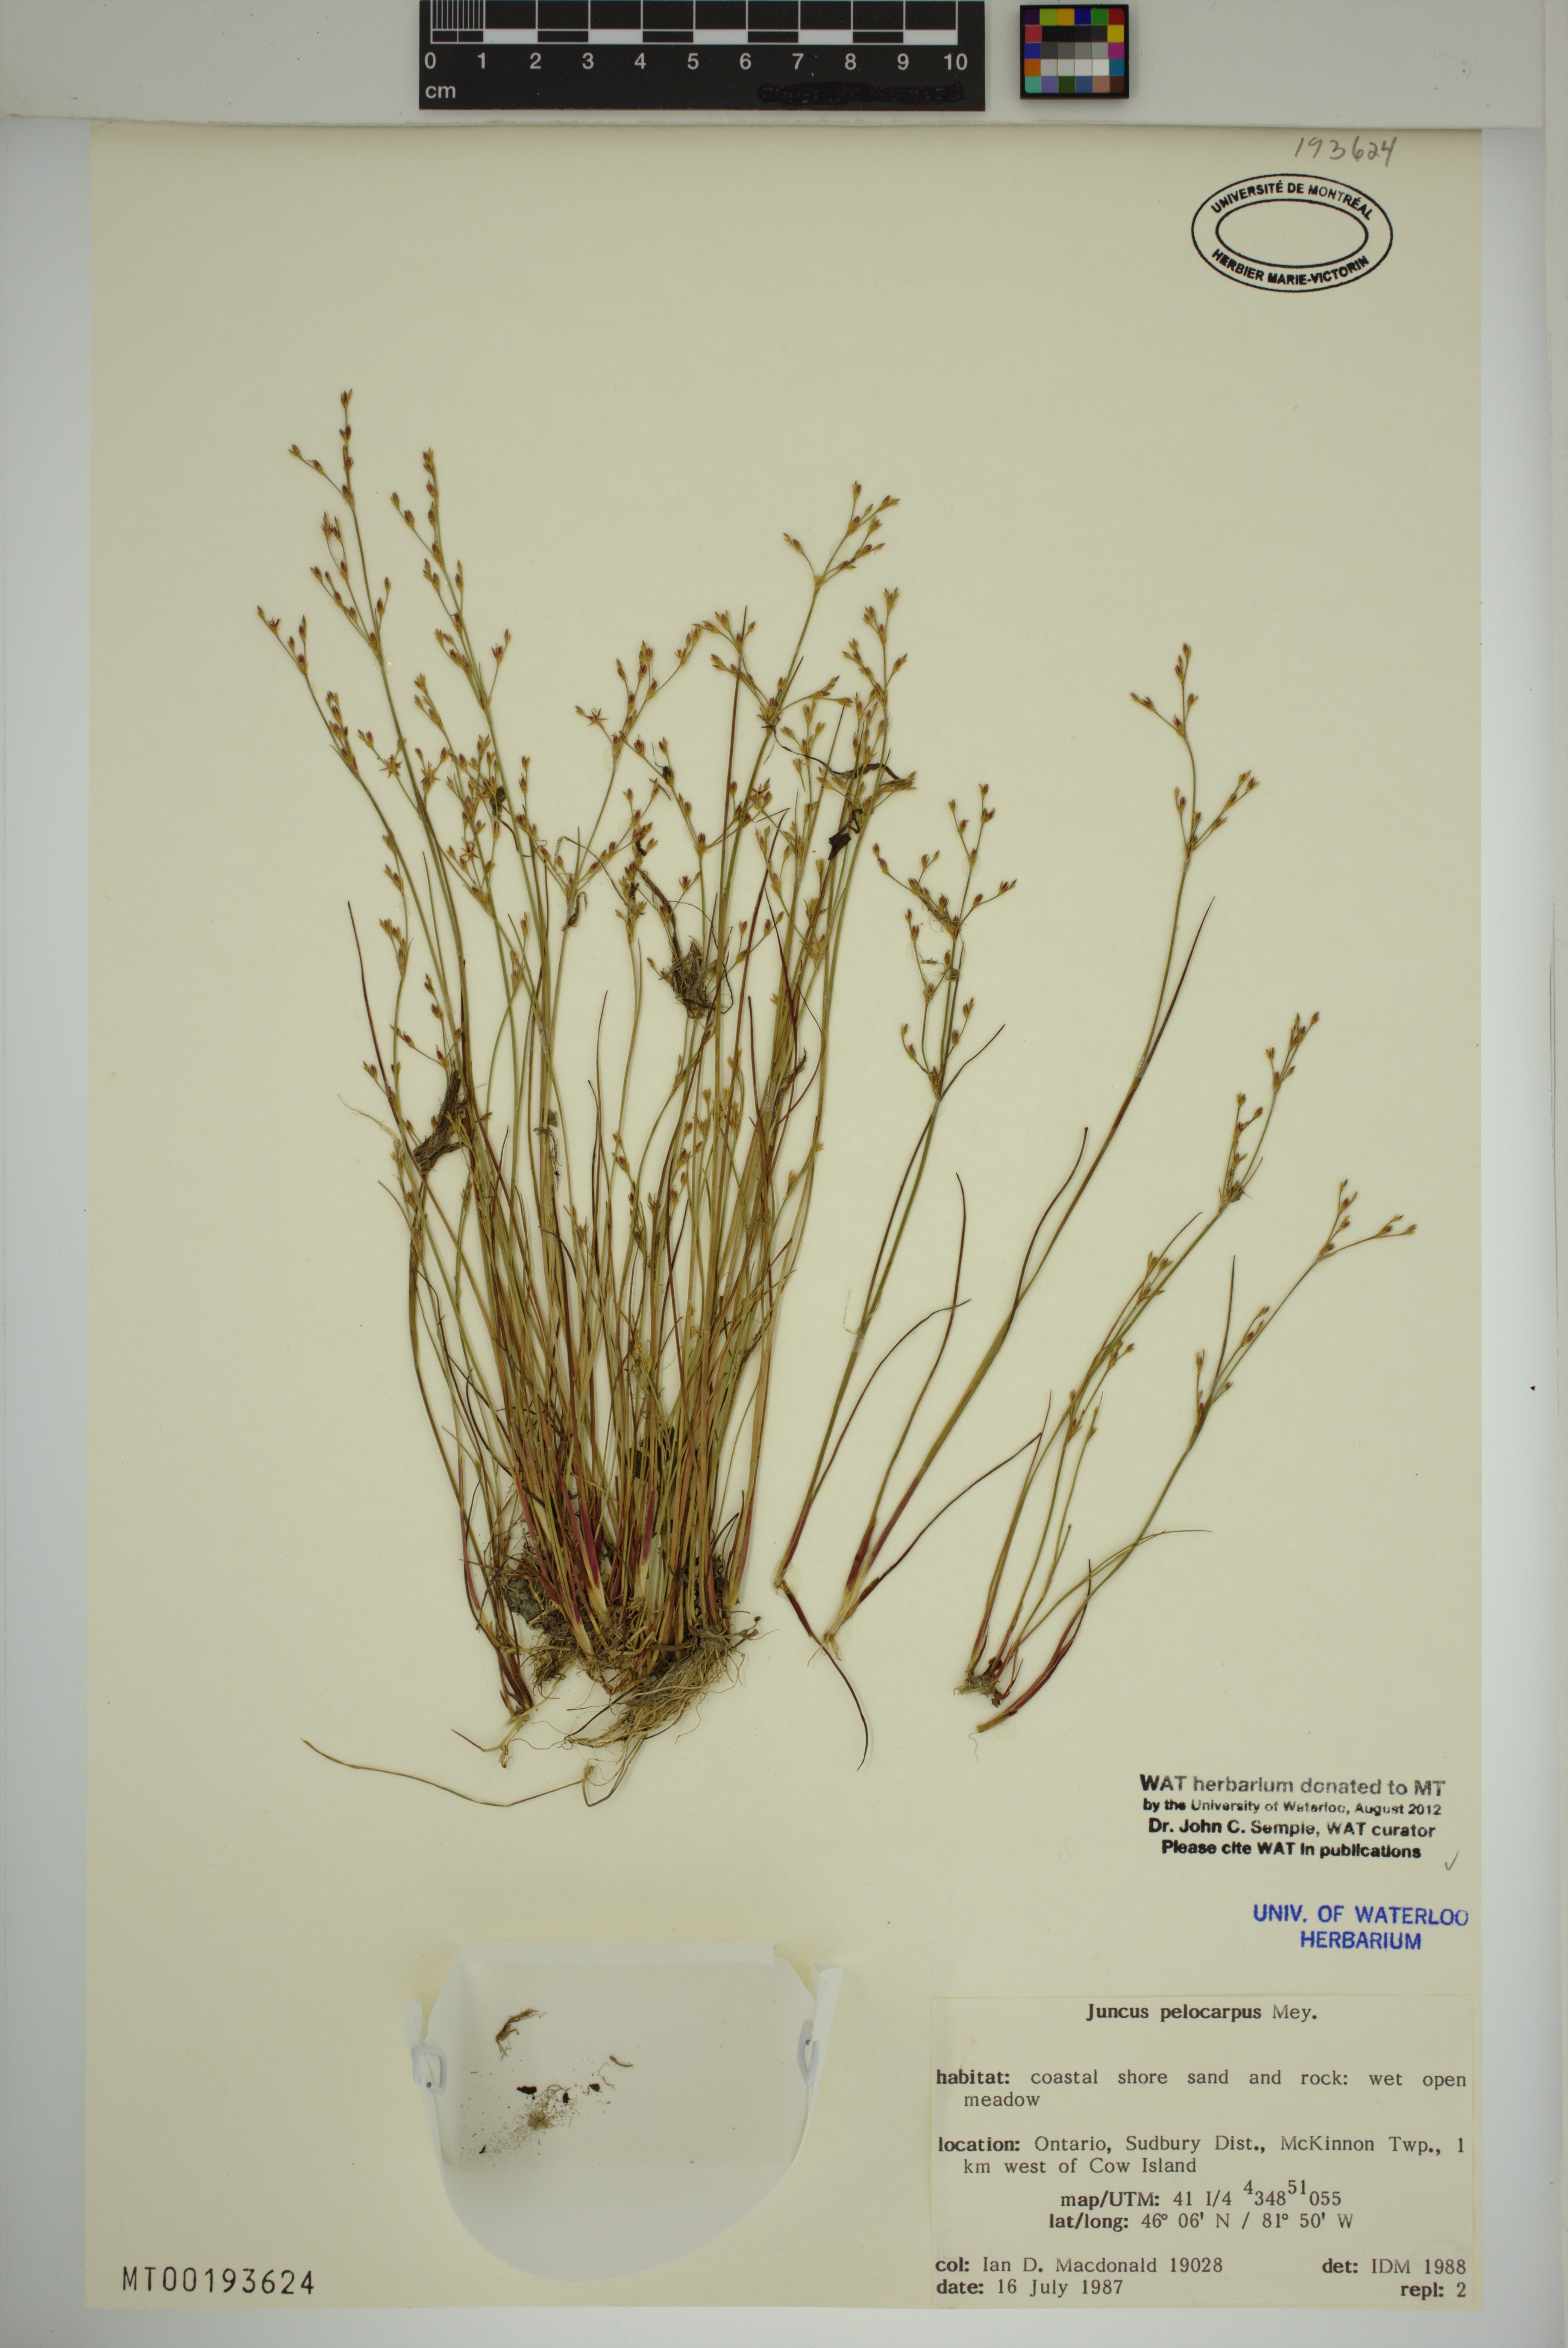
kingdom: Plantae
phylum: Tracheophyta
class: Liliopsida
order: Poales
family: Juncaceae
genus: Juncus
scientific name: Juncus pelocarpus
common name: Brown-fruited rush
